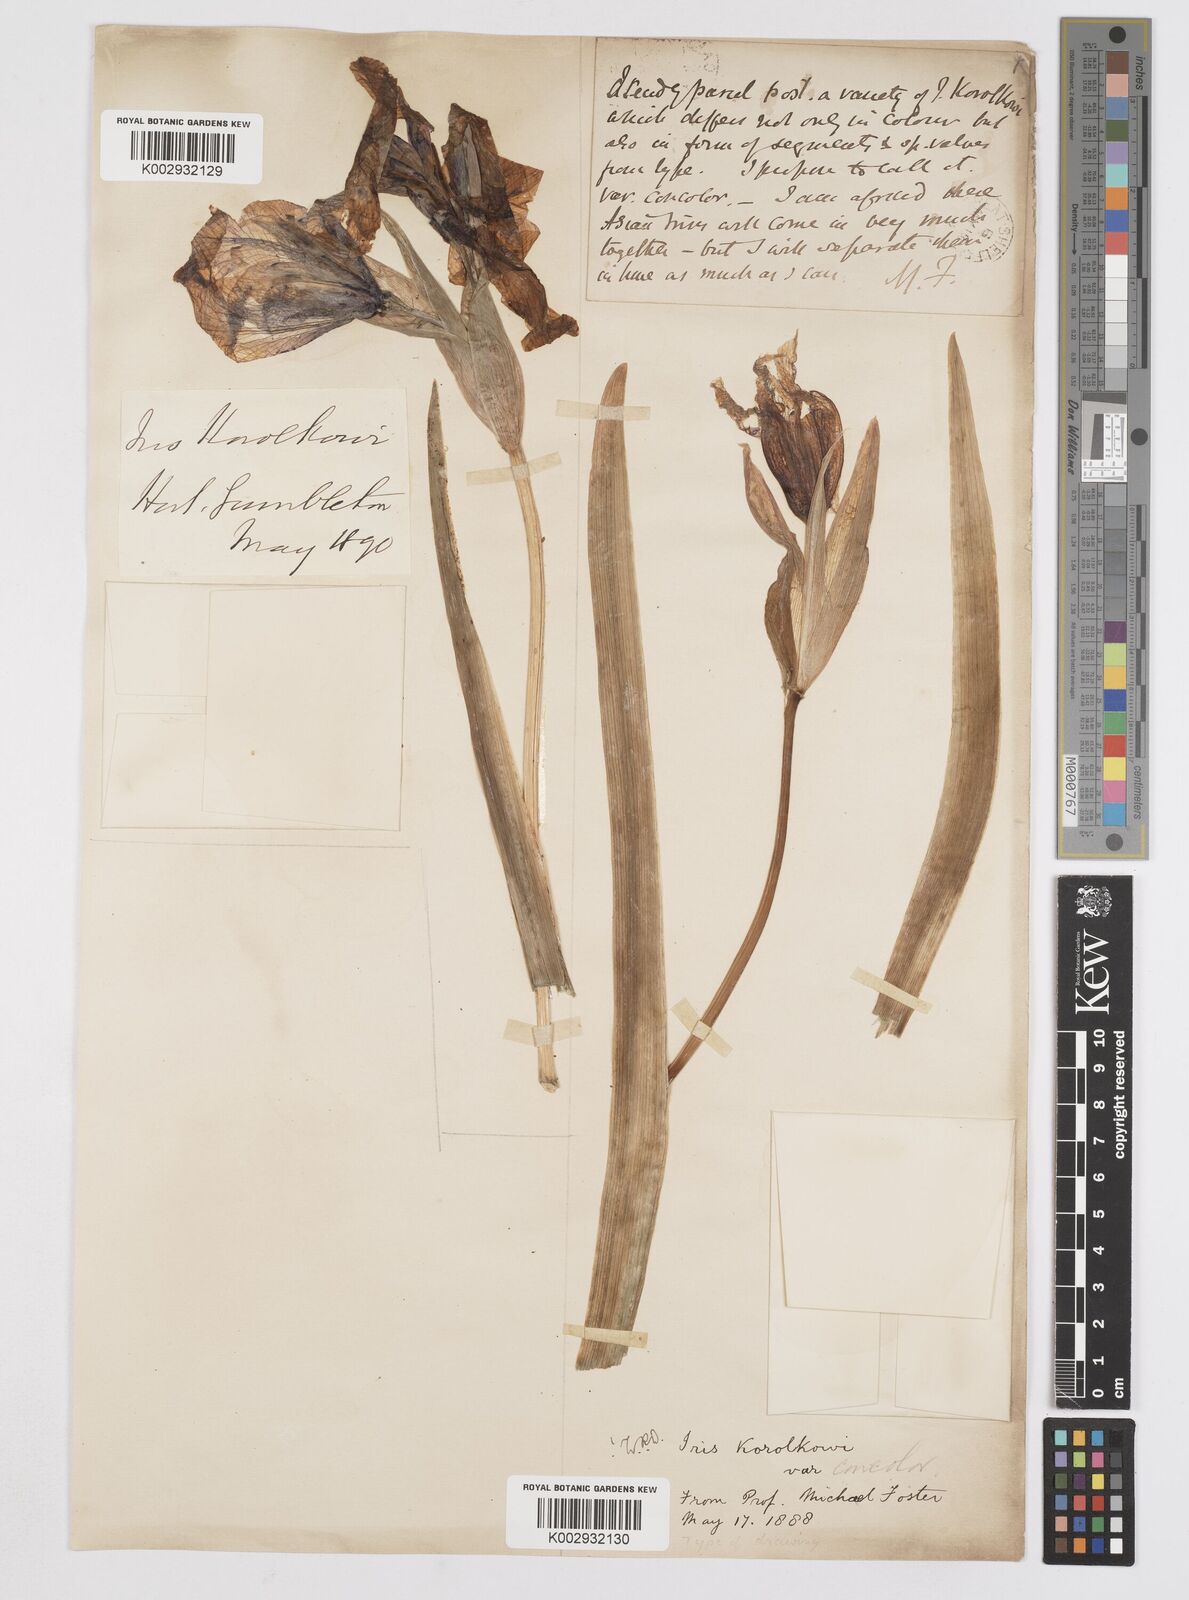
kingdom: Plantae
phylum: Tracheophyta
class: Liliopsida
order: Asparagales
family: Iridaceae
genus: Iris
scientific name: Iris korolkowii
